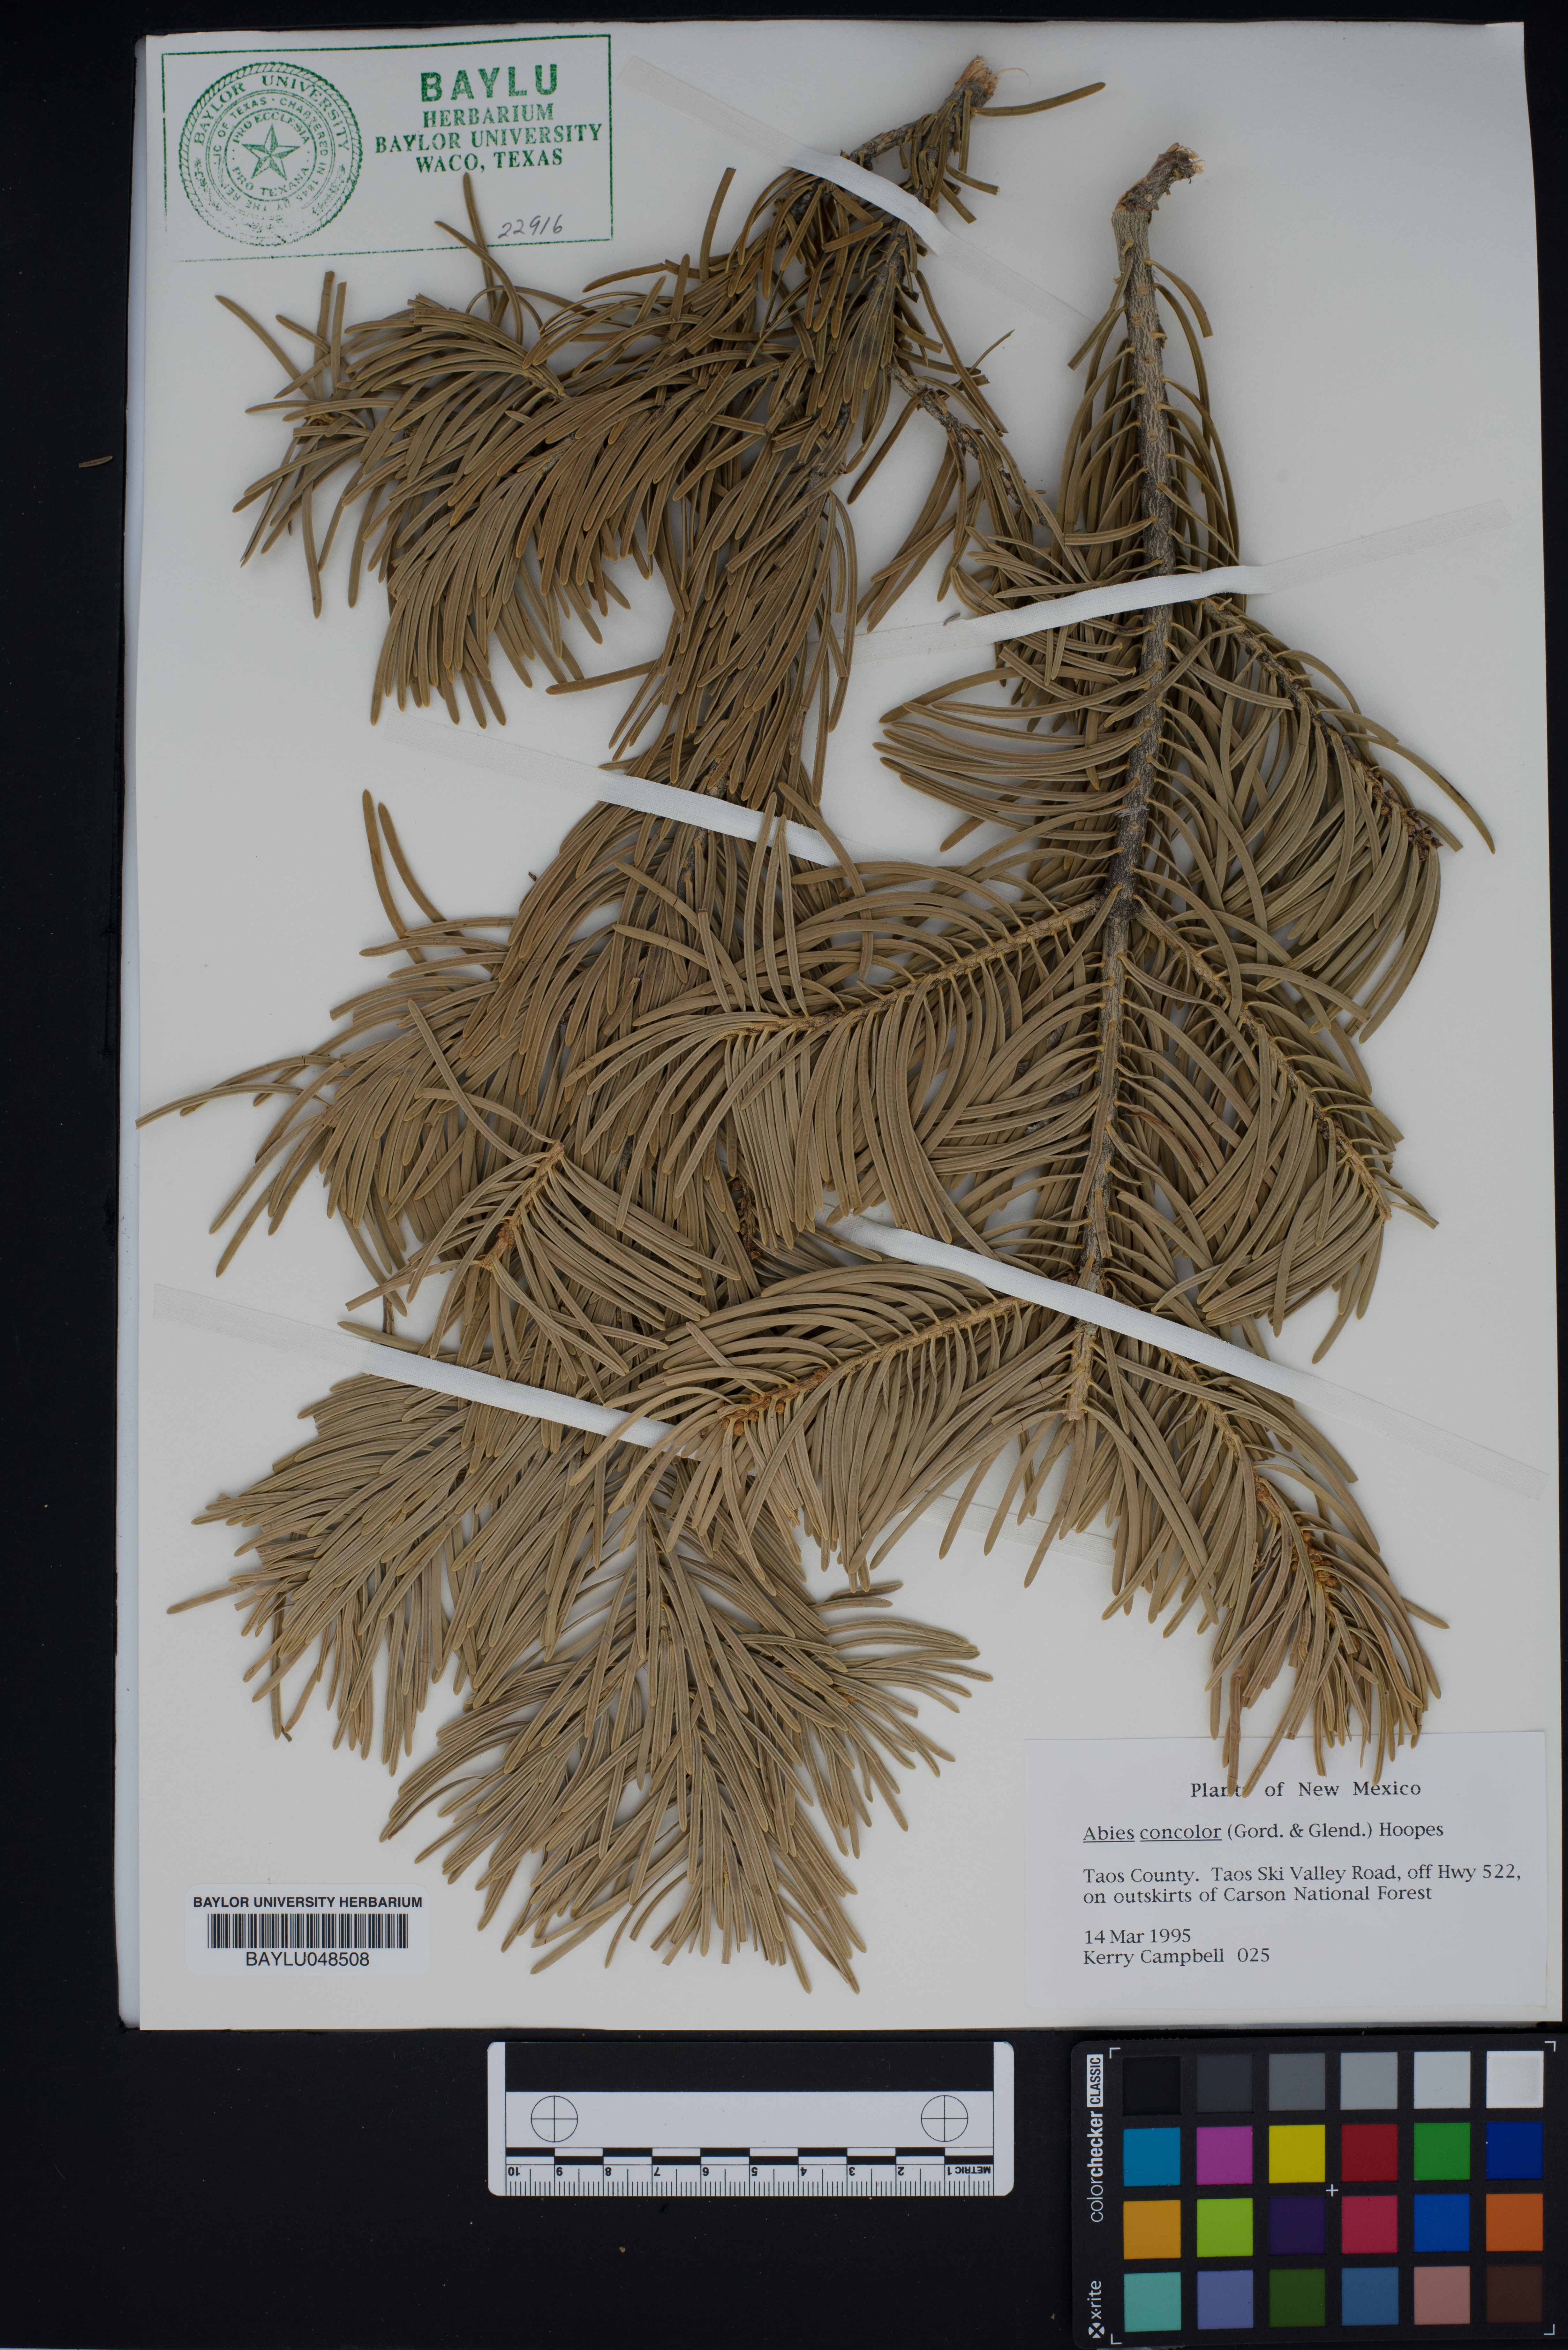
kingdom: Plantae
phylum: Tracheophyta
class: Pinopsida
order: Pinales
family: Pinaceae
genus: Abies
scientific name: Abies concolor
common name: Colorado fir
